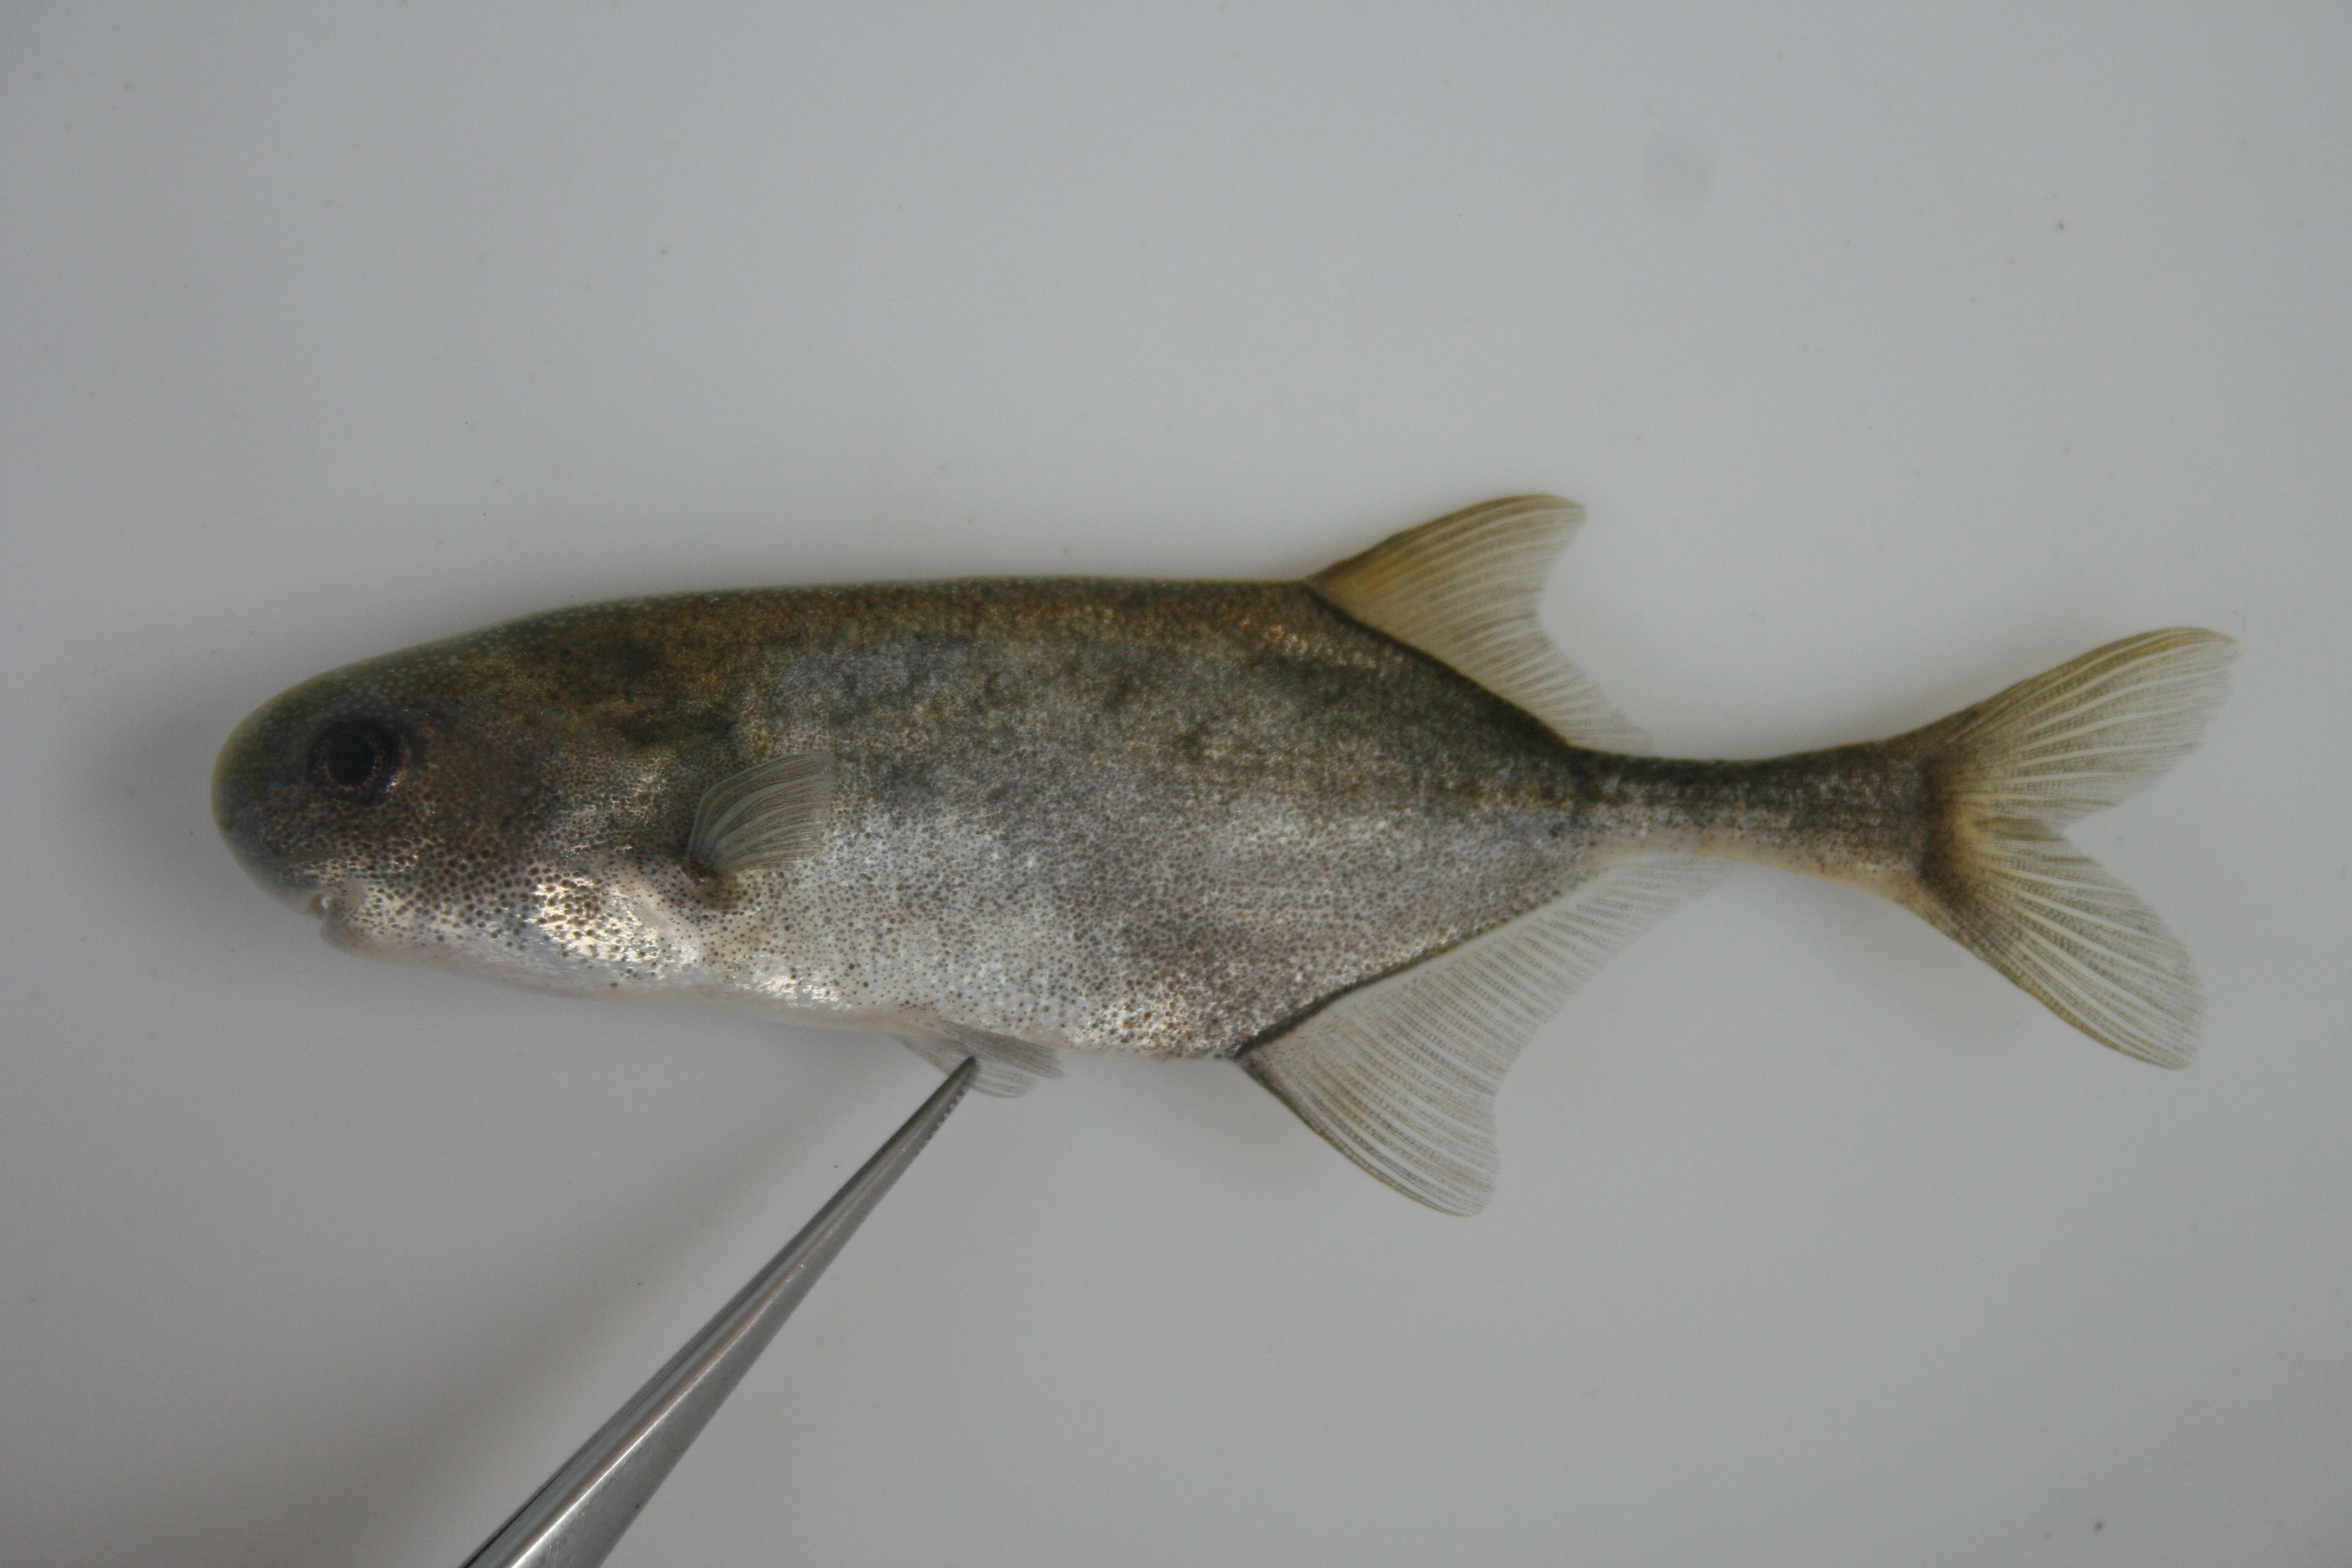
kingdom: Animalia
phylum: Chordata
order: Osteoglossiformes
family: Mormyridae
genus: Petrocephalus
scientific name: Petrocephalus
